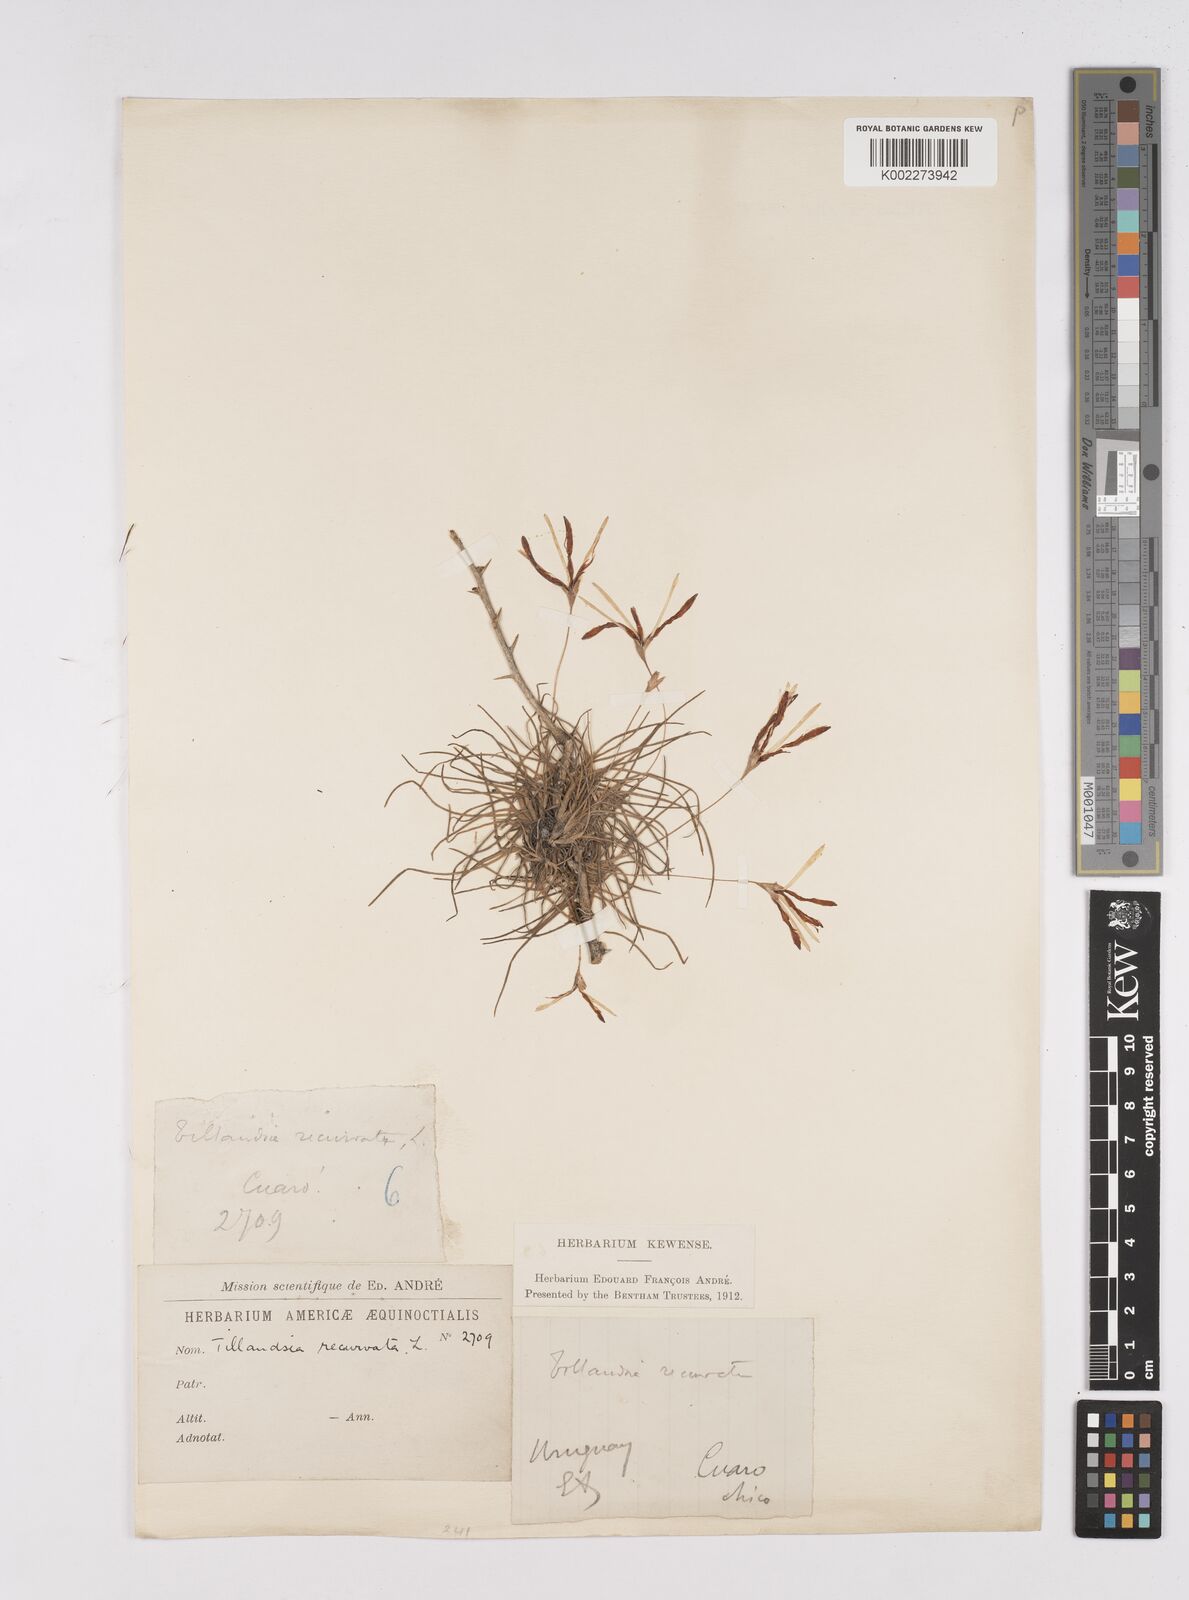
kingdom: Plantae
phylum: Tracheophyta
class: Liliopsida
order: Poales
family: Bromeliaceae
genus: Tillandsia
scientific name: Tillandsia recurvata
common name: Small ballmoss
